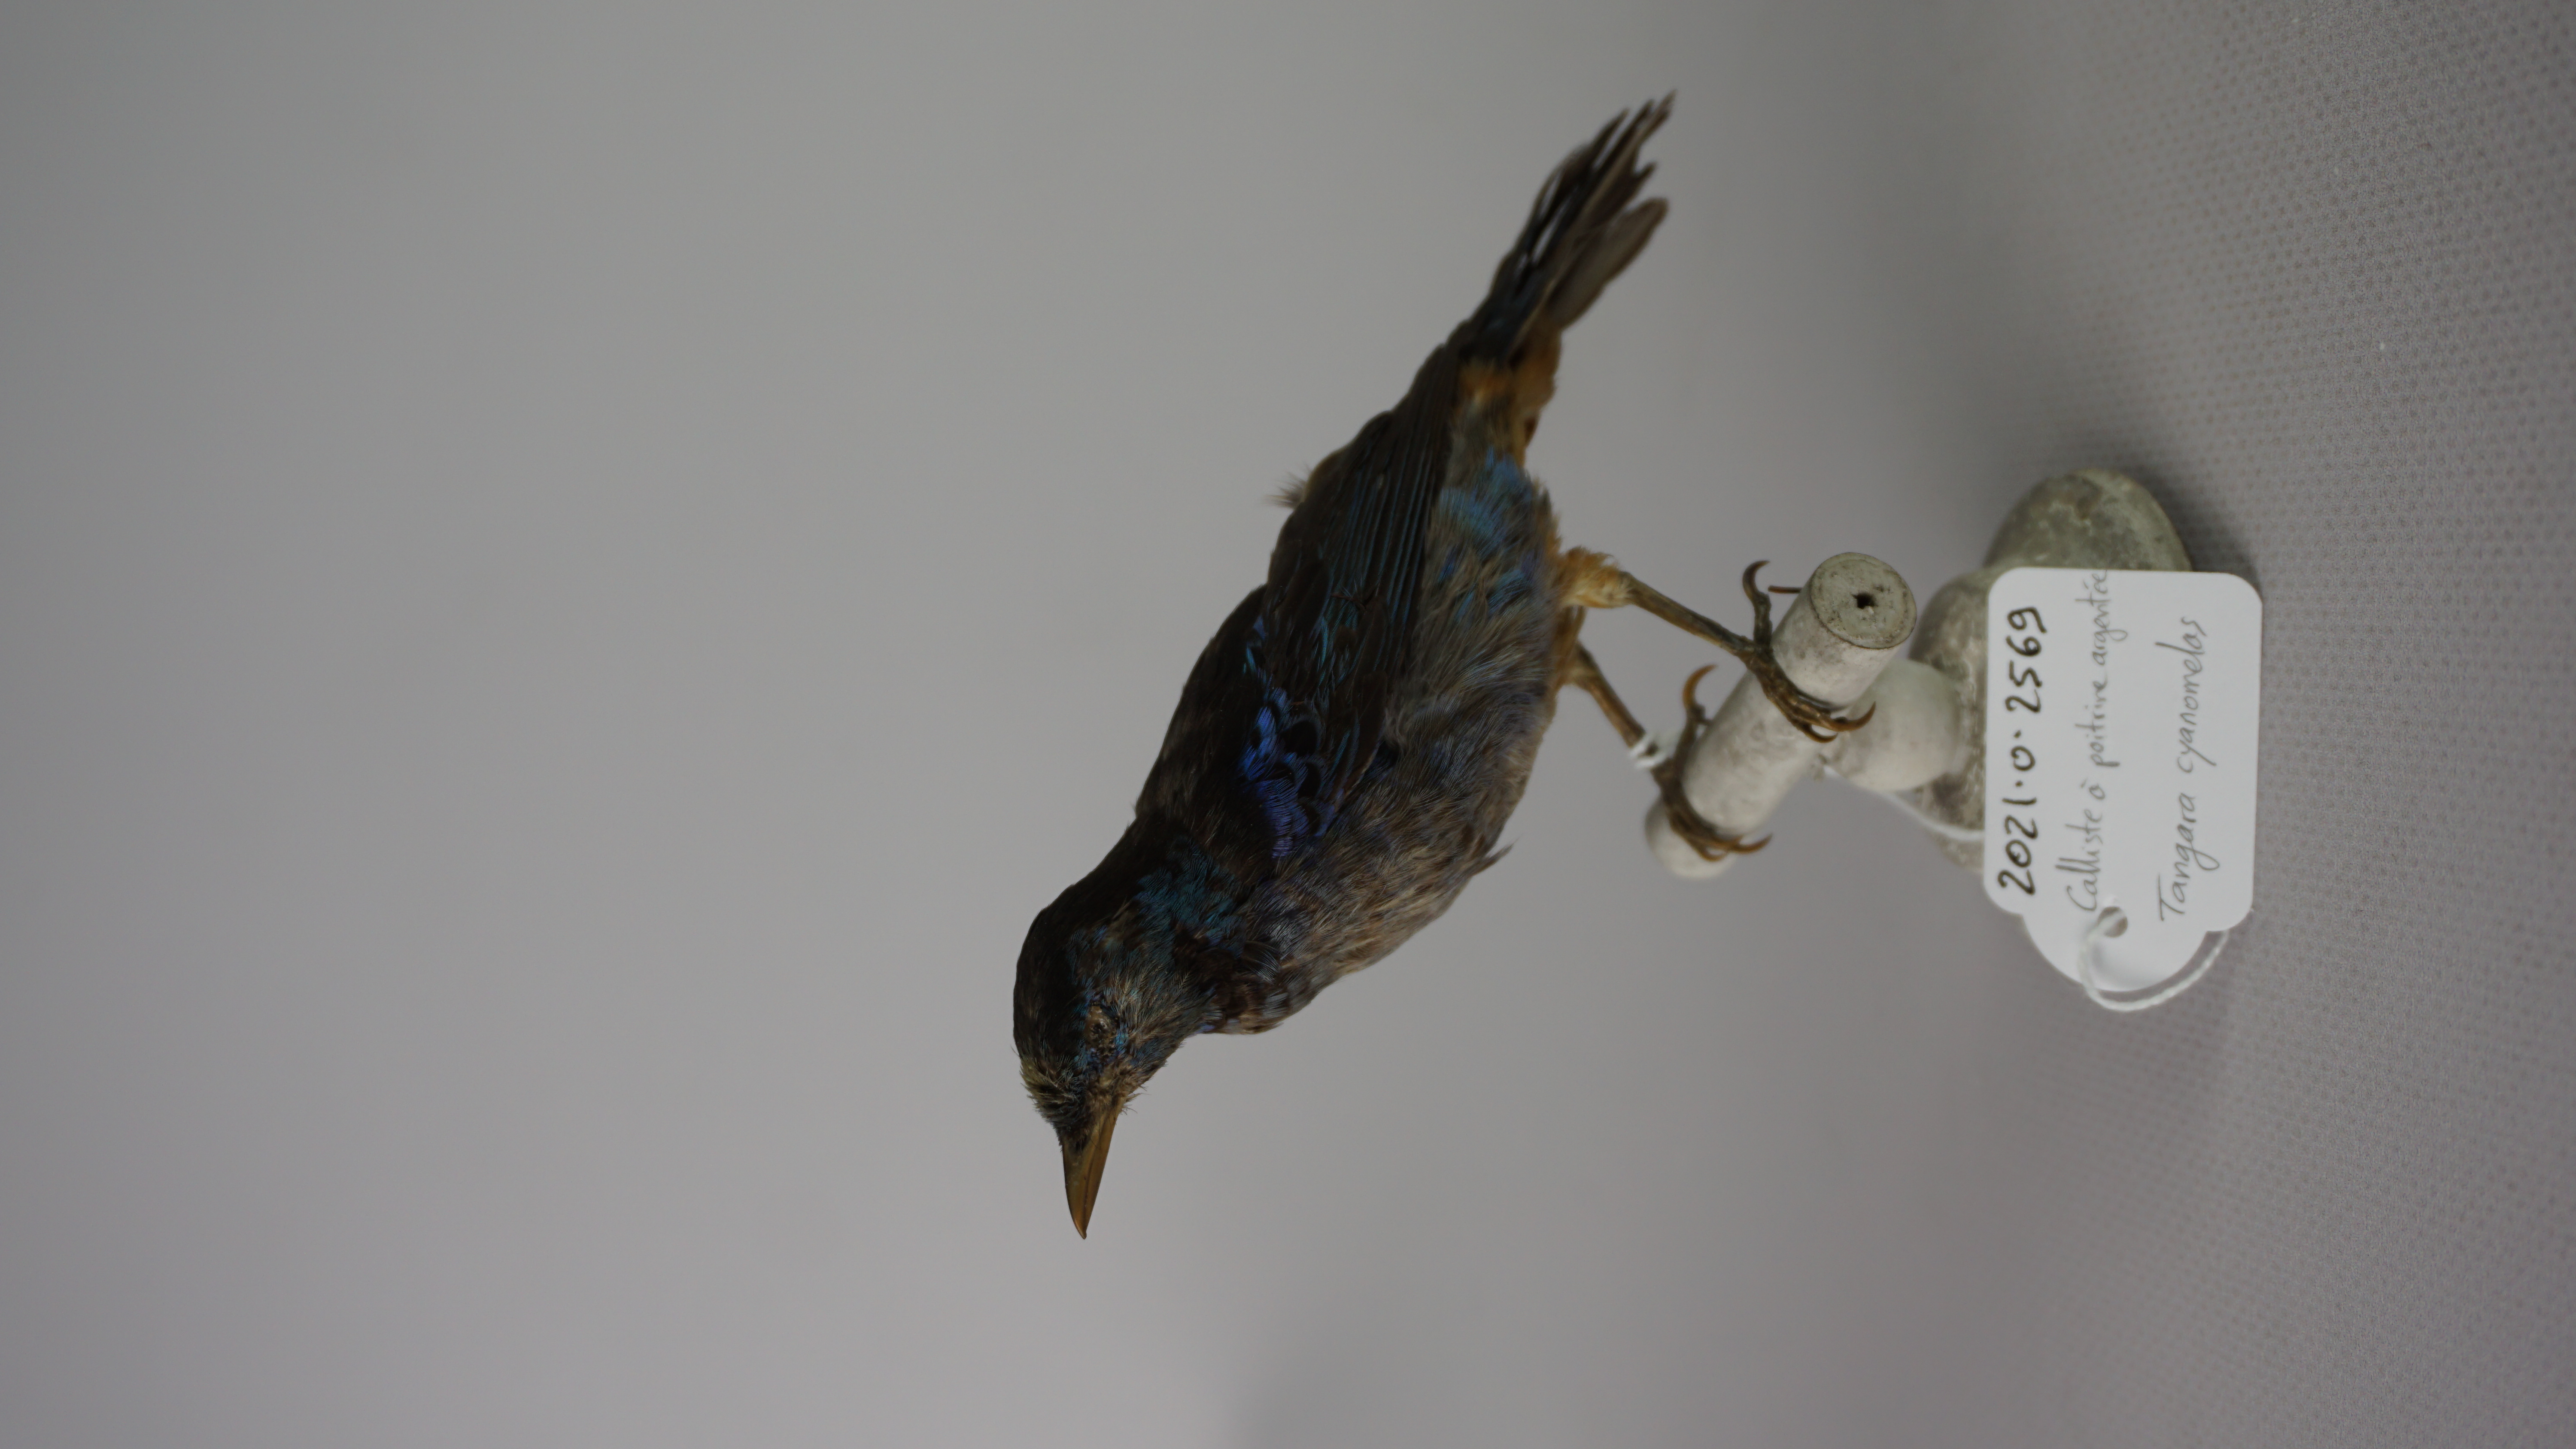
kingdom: Animalia
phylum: Chordata
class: Aves
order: Passeriformes
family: Thraupidae
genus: Tangara
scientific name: Tangara velia
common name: Opal-rumped tanager
